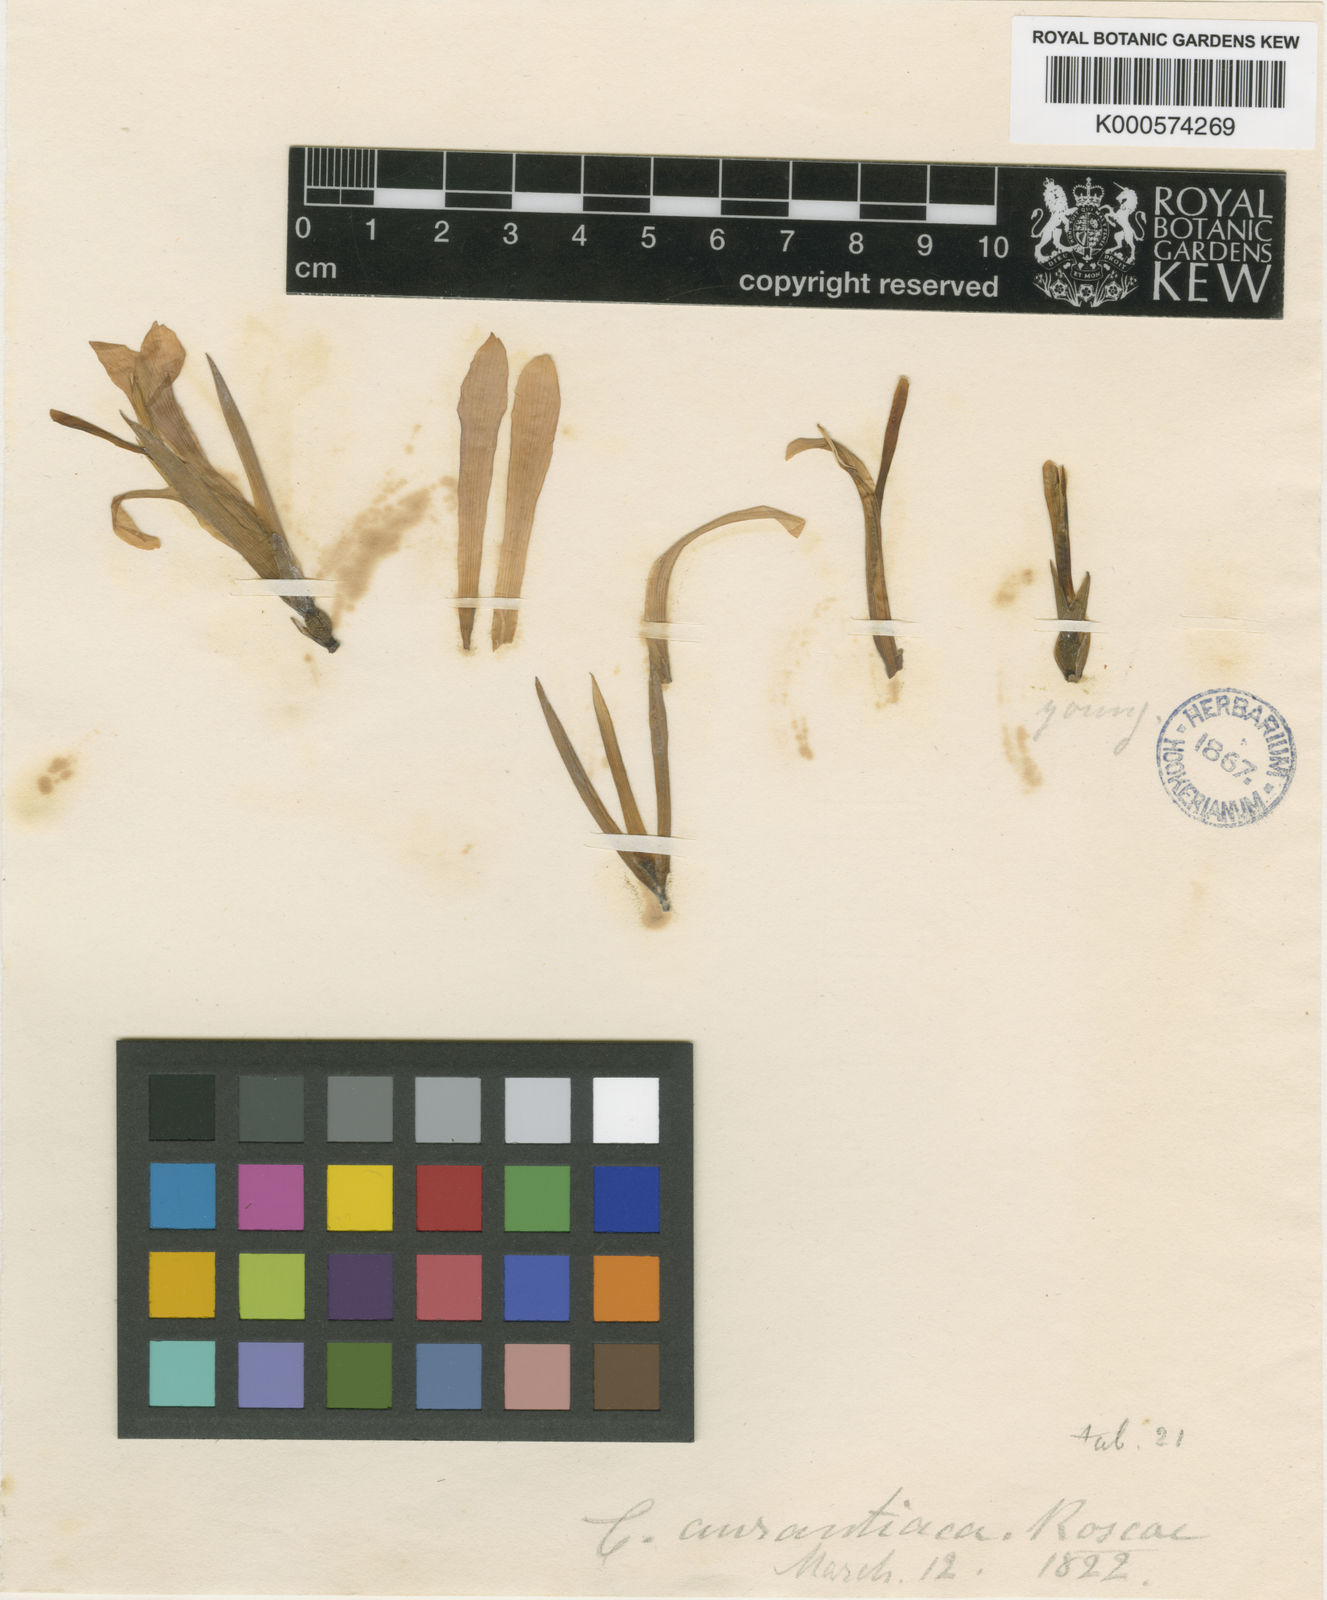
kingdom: Plantae
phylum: Tracheophyta
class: Liliopsida
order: Zingiberales
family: Cannaceae
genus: Canna
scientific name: Canna indica
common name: Indian shot
